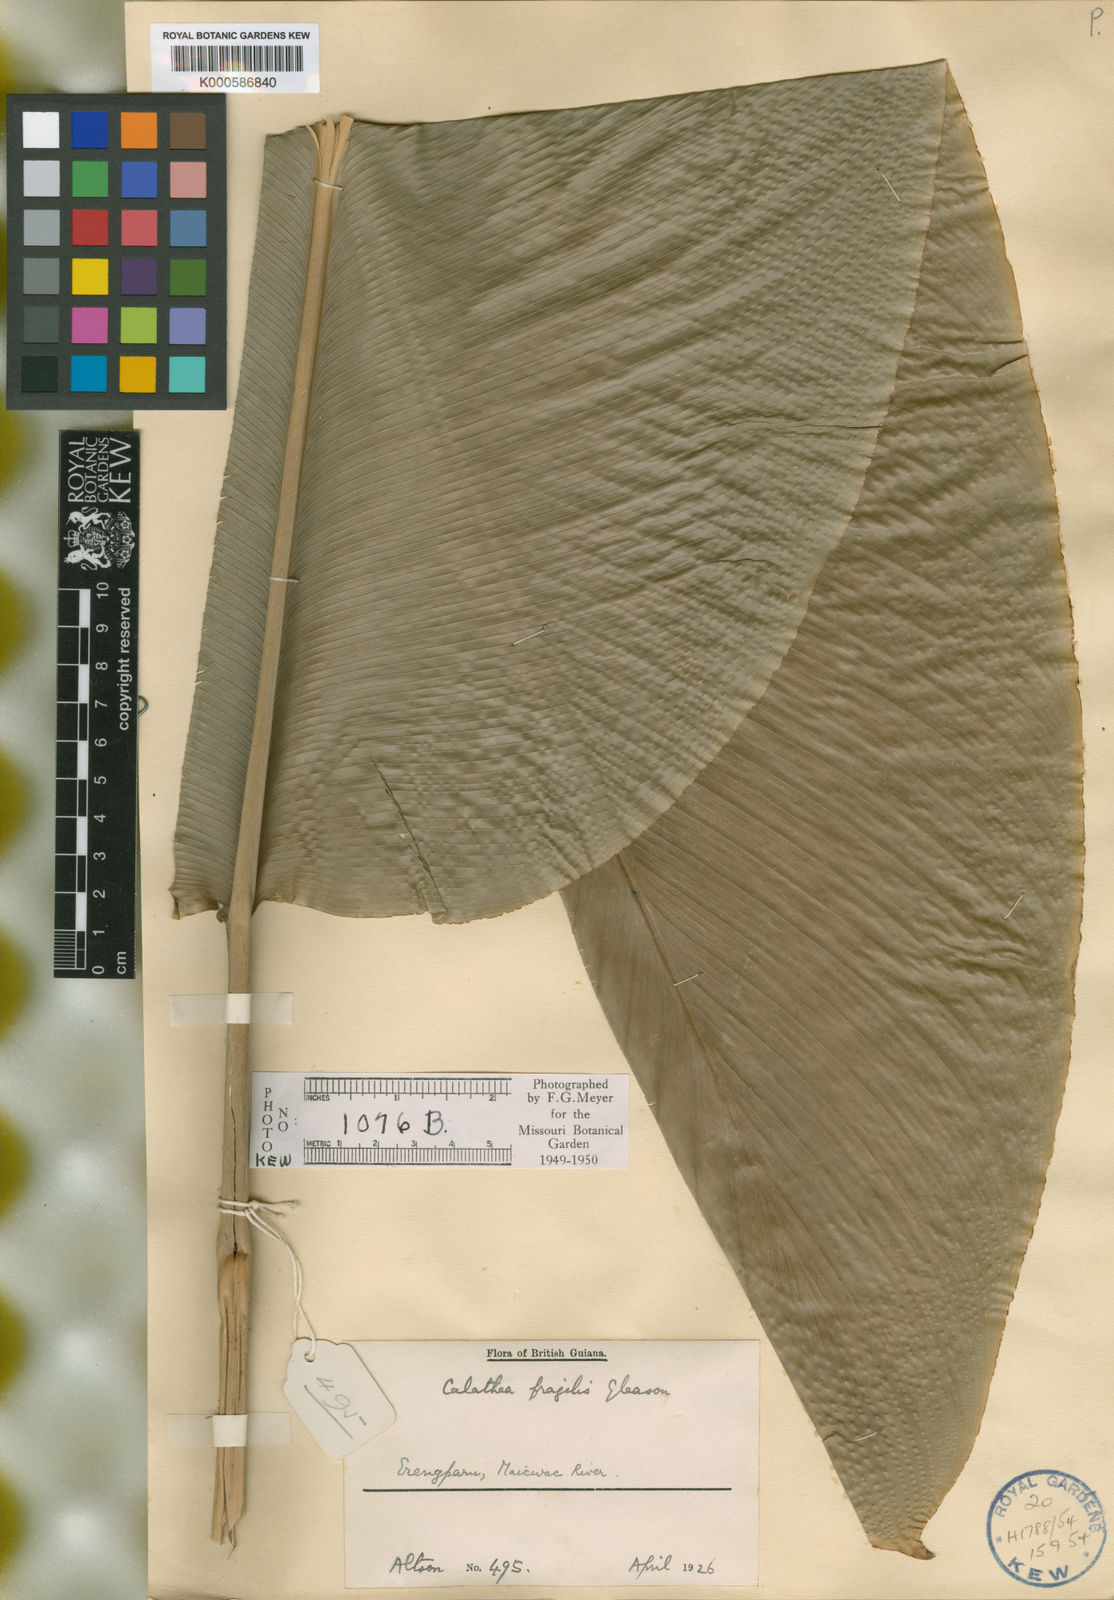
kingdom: Plantae
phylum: Tracheophyta
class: Liliopsida
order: Zingiberales
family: Marantaceae
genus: Goeppertia
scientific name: Goeppertia fragilis
